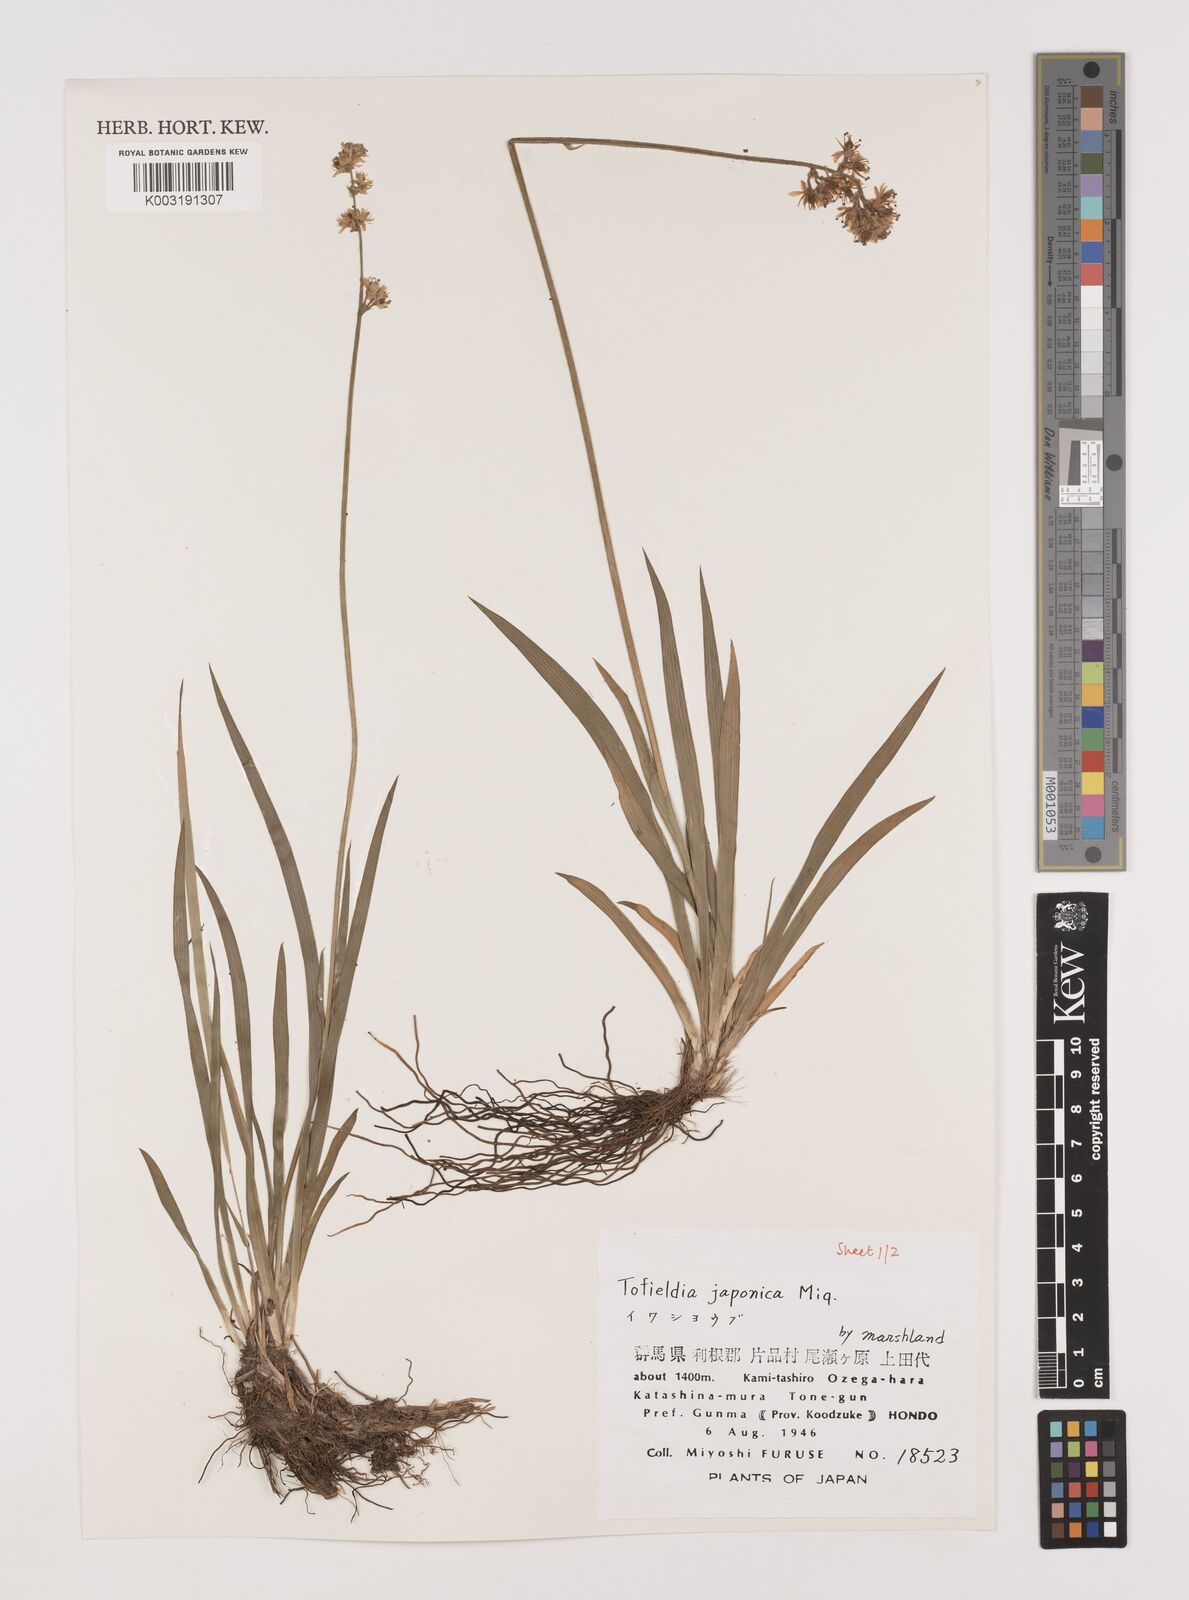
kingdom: Plantae
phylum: Tracheophyta
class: Liliopsida
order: Alismatales
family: Tofieldiaceae
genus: Triantha
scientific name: Triantha japonica
